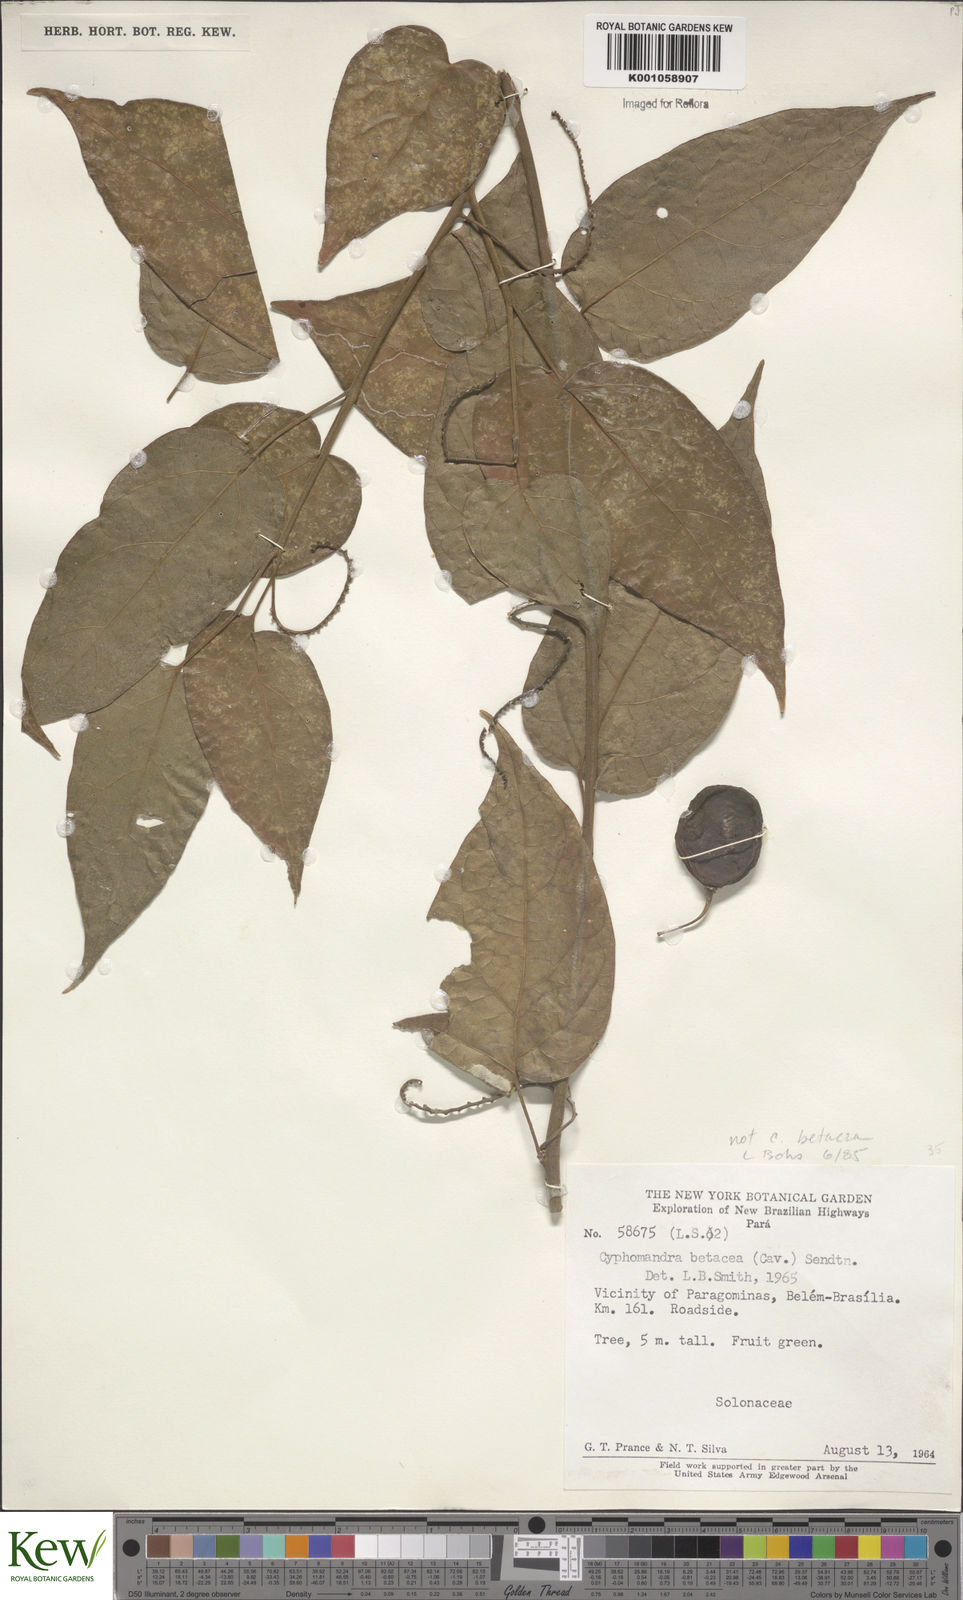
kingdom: Plantae
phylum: Tracheophyta
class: Magnoliopsida
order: Solanales
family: Solanaceae
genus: Solanum
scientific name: Solanum tegore
